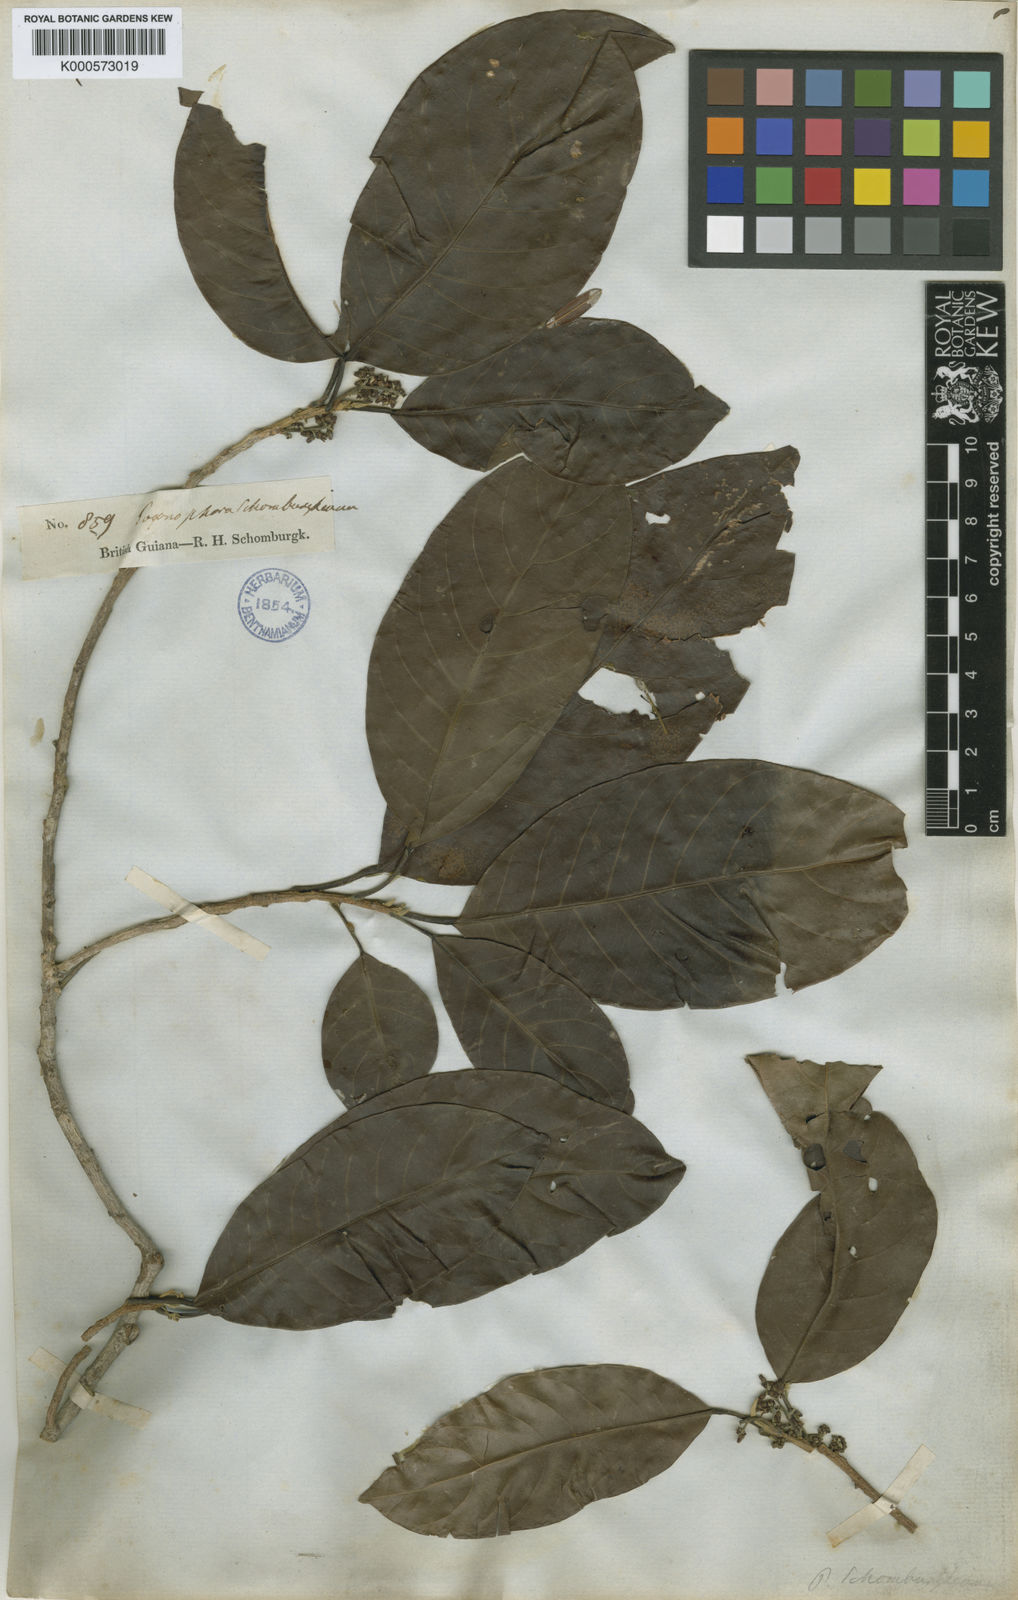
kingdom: Plantae
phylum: Tracheophyta
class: Magnoliopsida
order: Malpighiales
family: Peraceae
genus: Pogonophora
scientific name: Pogonophora schomburgkiana
